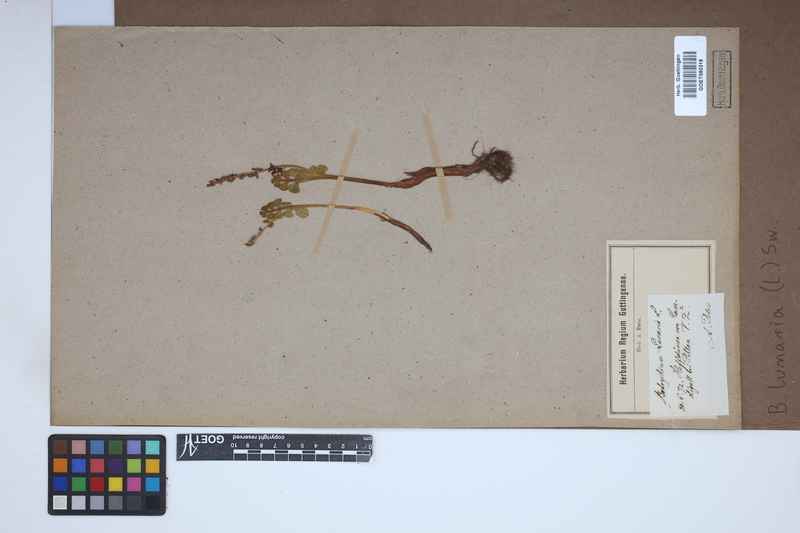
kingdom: Plantae
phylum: Tracheophyta
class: Polypodiopsida
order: Ophioglossales
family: Ophioglossaceae
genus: Botrychium
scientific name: Botrychium lunaria
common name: Moonwort
